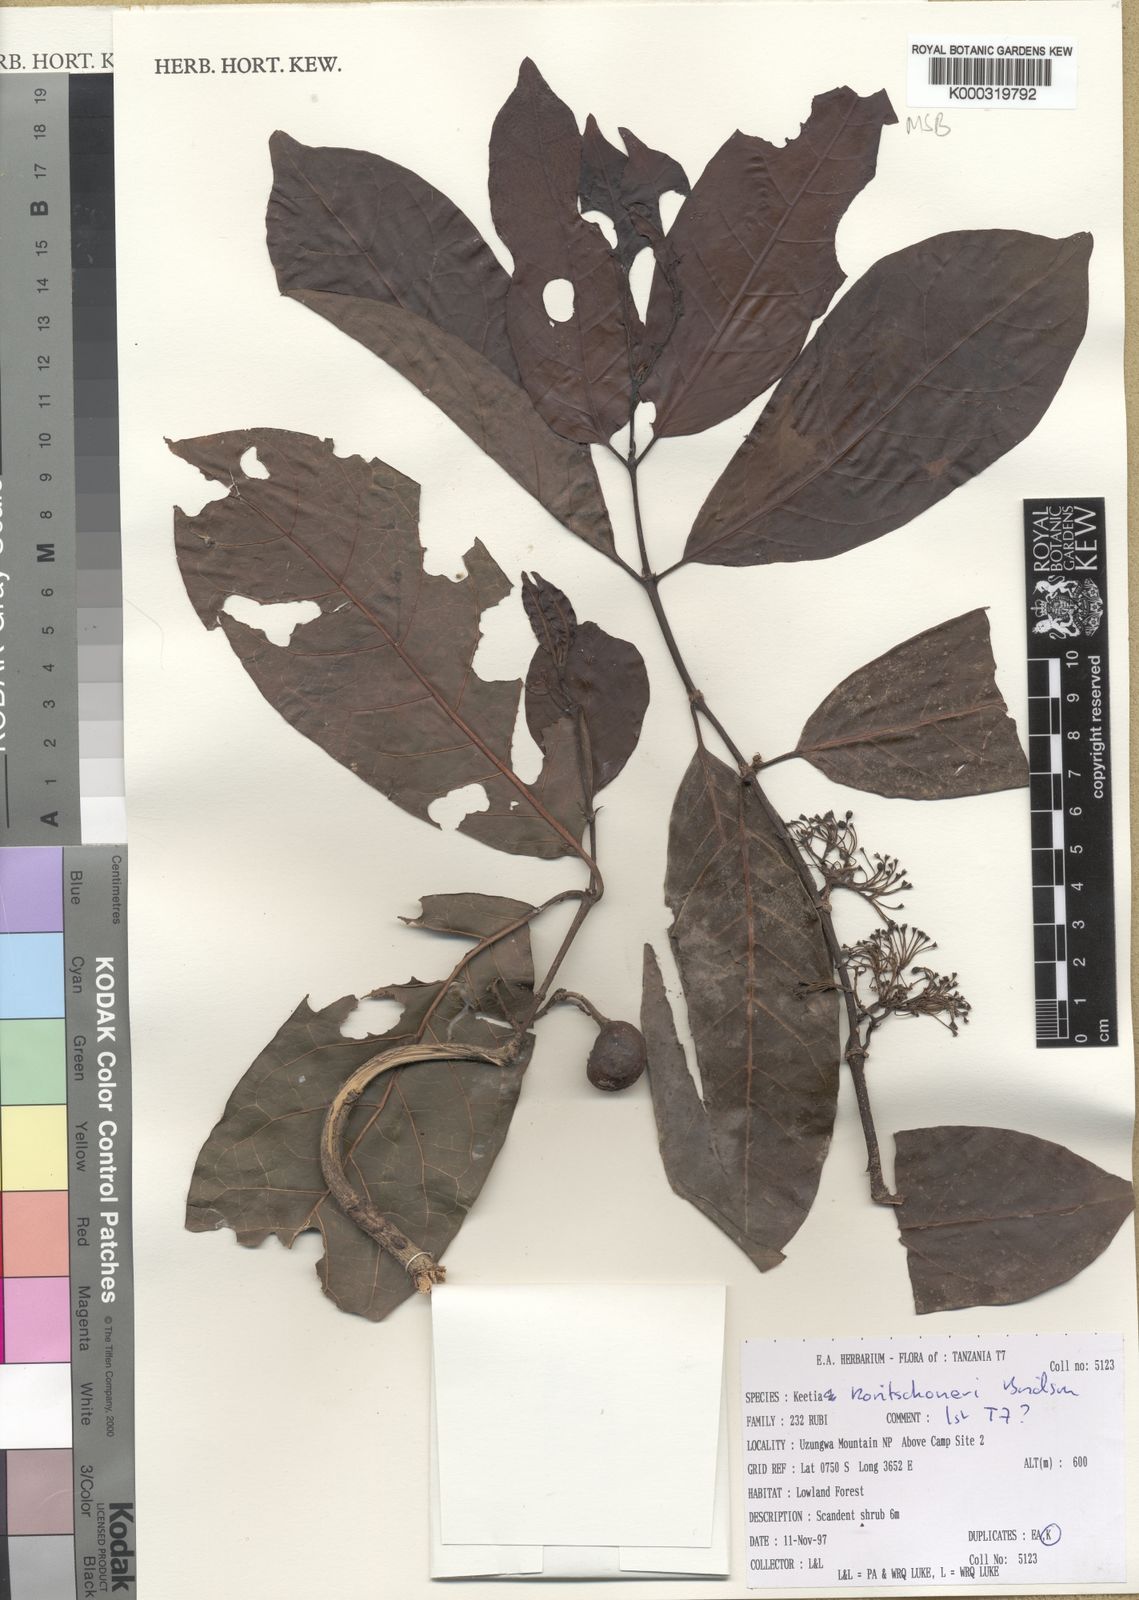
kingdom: Plantae
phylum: Tracheophyta
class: Magnoliopsida
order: Gentianales
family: Rubiaceae
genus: Keetia
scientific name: Keetia koritschoneri
